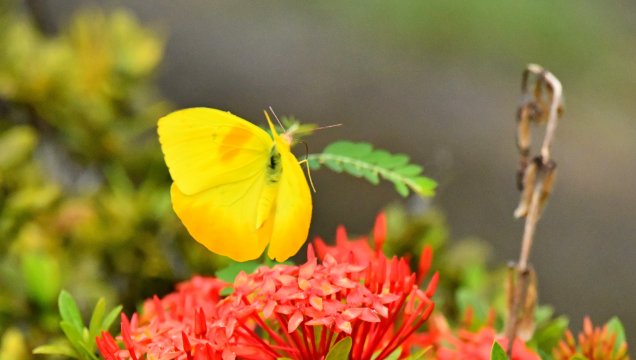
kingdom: Animalia
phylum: Arthropoda
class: Insecta
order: Lepidoptera
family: Pieridae
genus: Phoebis
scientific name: Phoebis philea
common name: Orange-barred Sulphur
